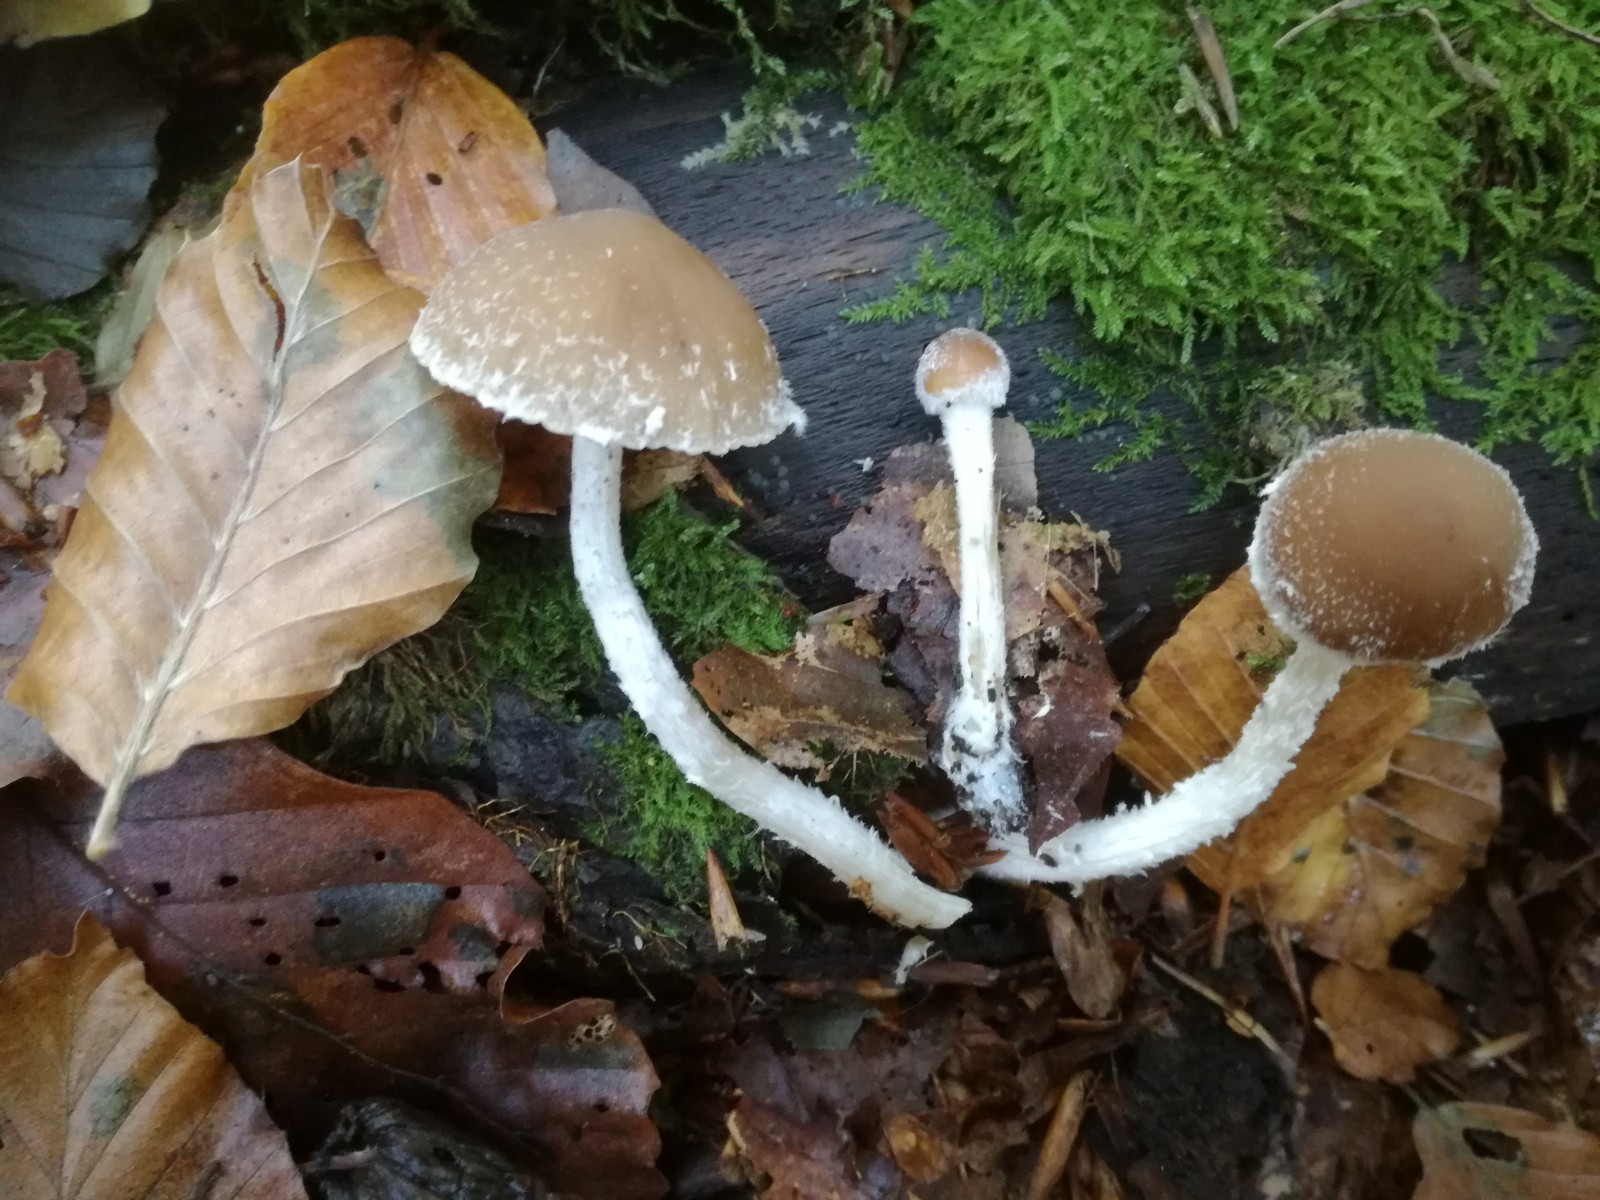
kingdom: Fungi
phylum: Basidiomycota
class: Agaricomycetes
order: Agaricales
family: Psathyrellaceae
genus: Psathyrella
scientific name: Psathyrella
